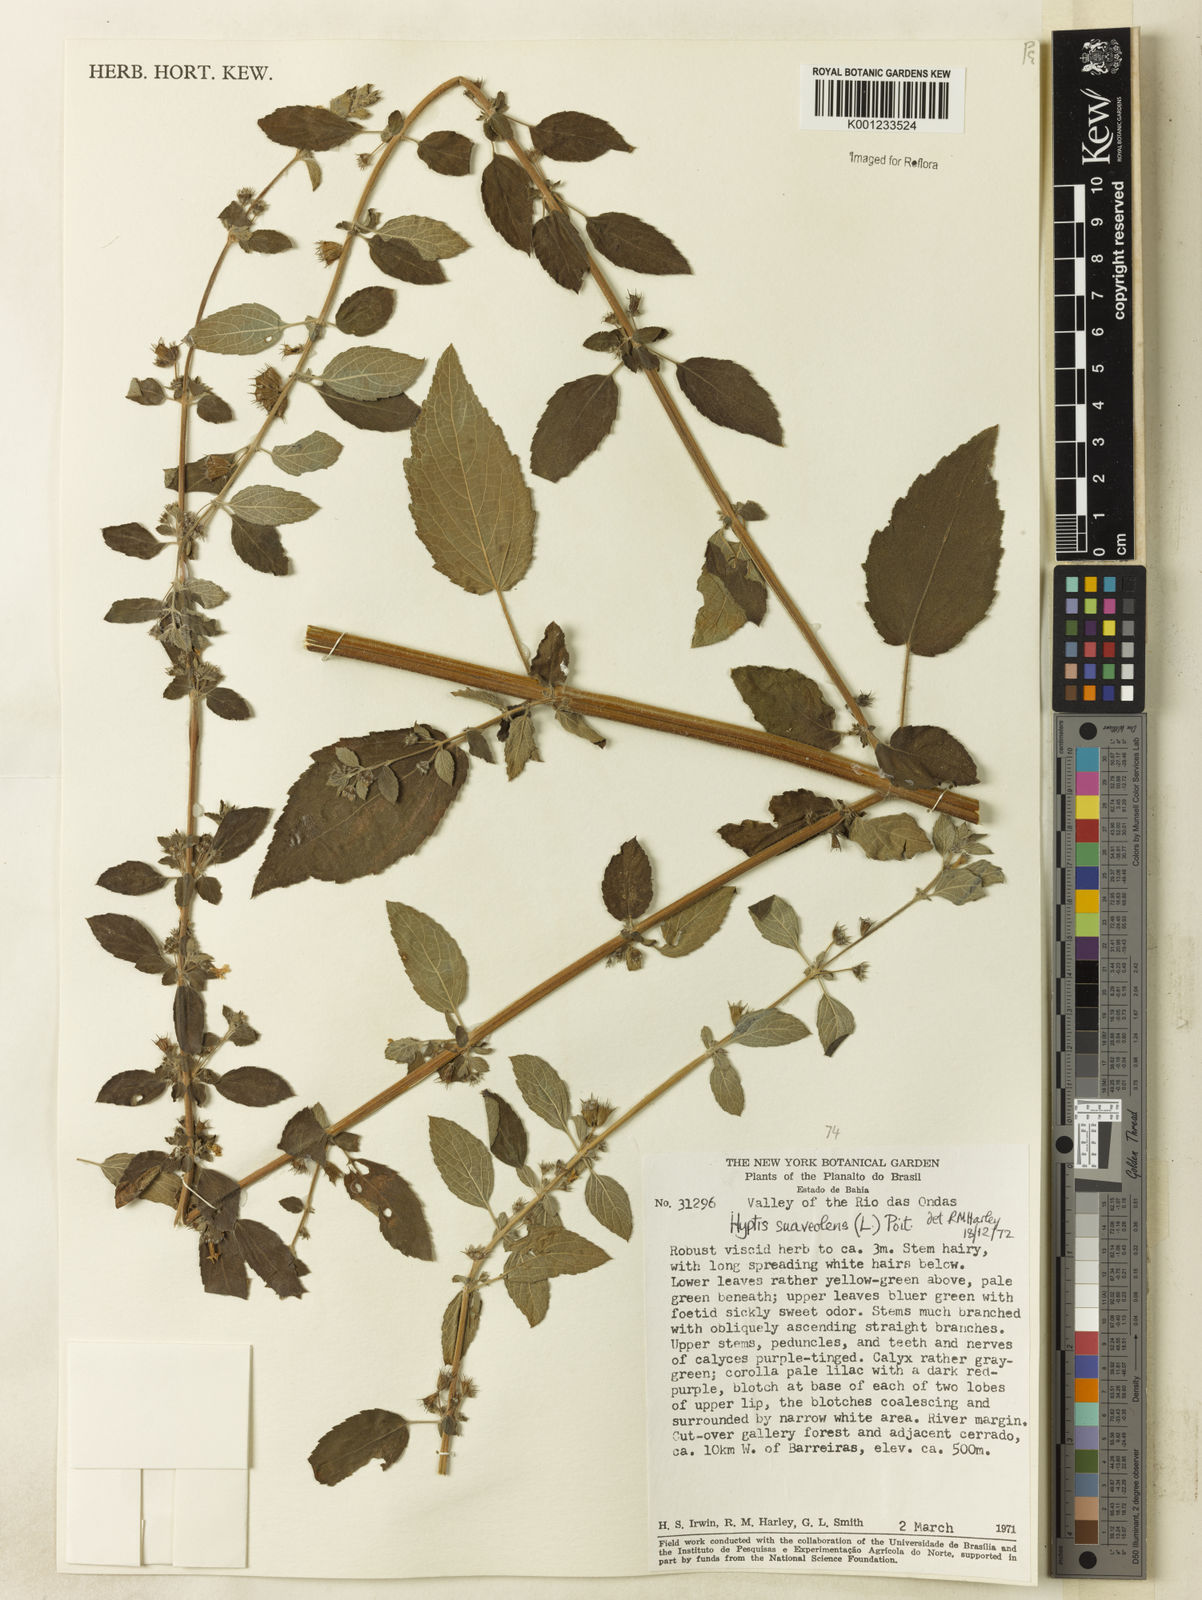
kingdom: Plantae
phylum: Tracheophyta
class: Magnoliopsida
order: Lamiales
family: Lamiaceae
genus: Mesosphaerum
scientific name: Mesosphaerum suaveolens
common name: Pignut
